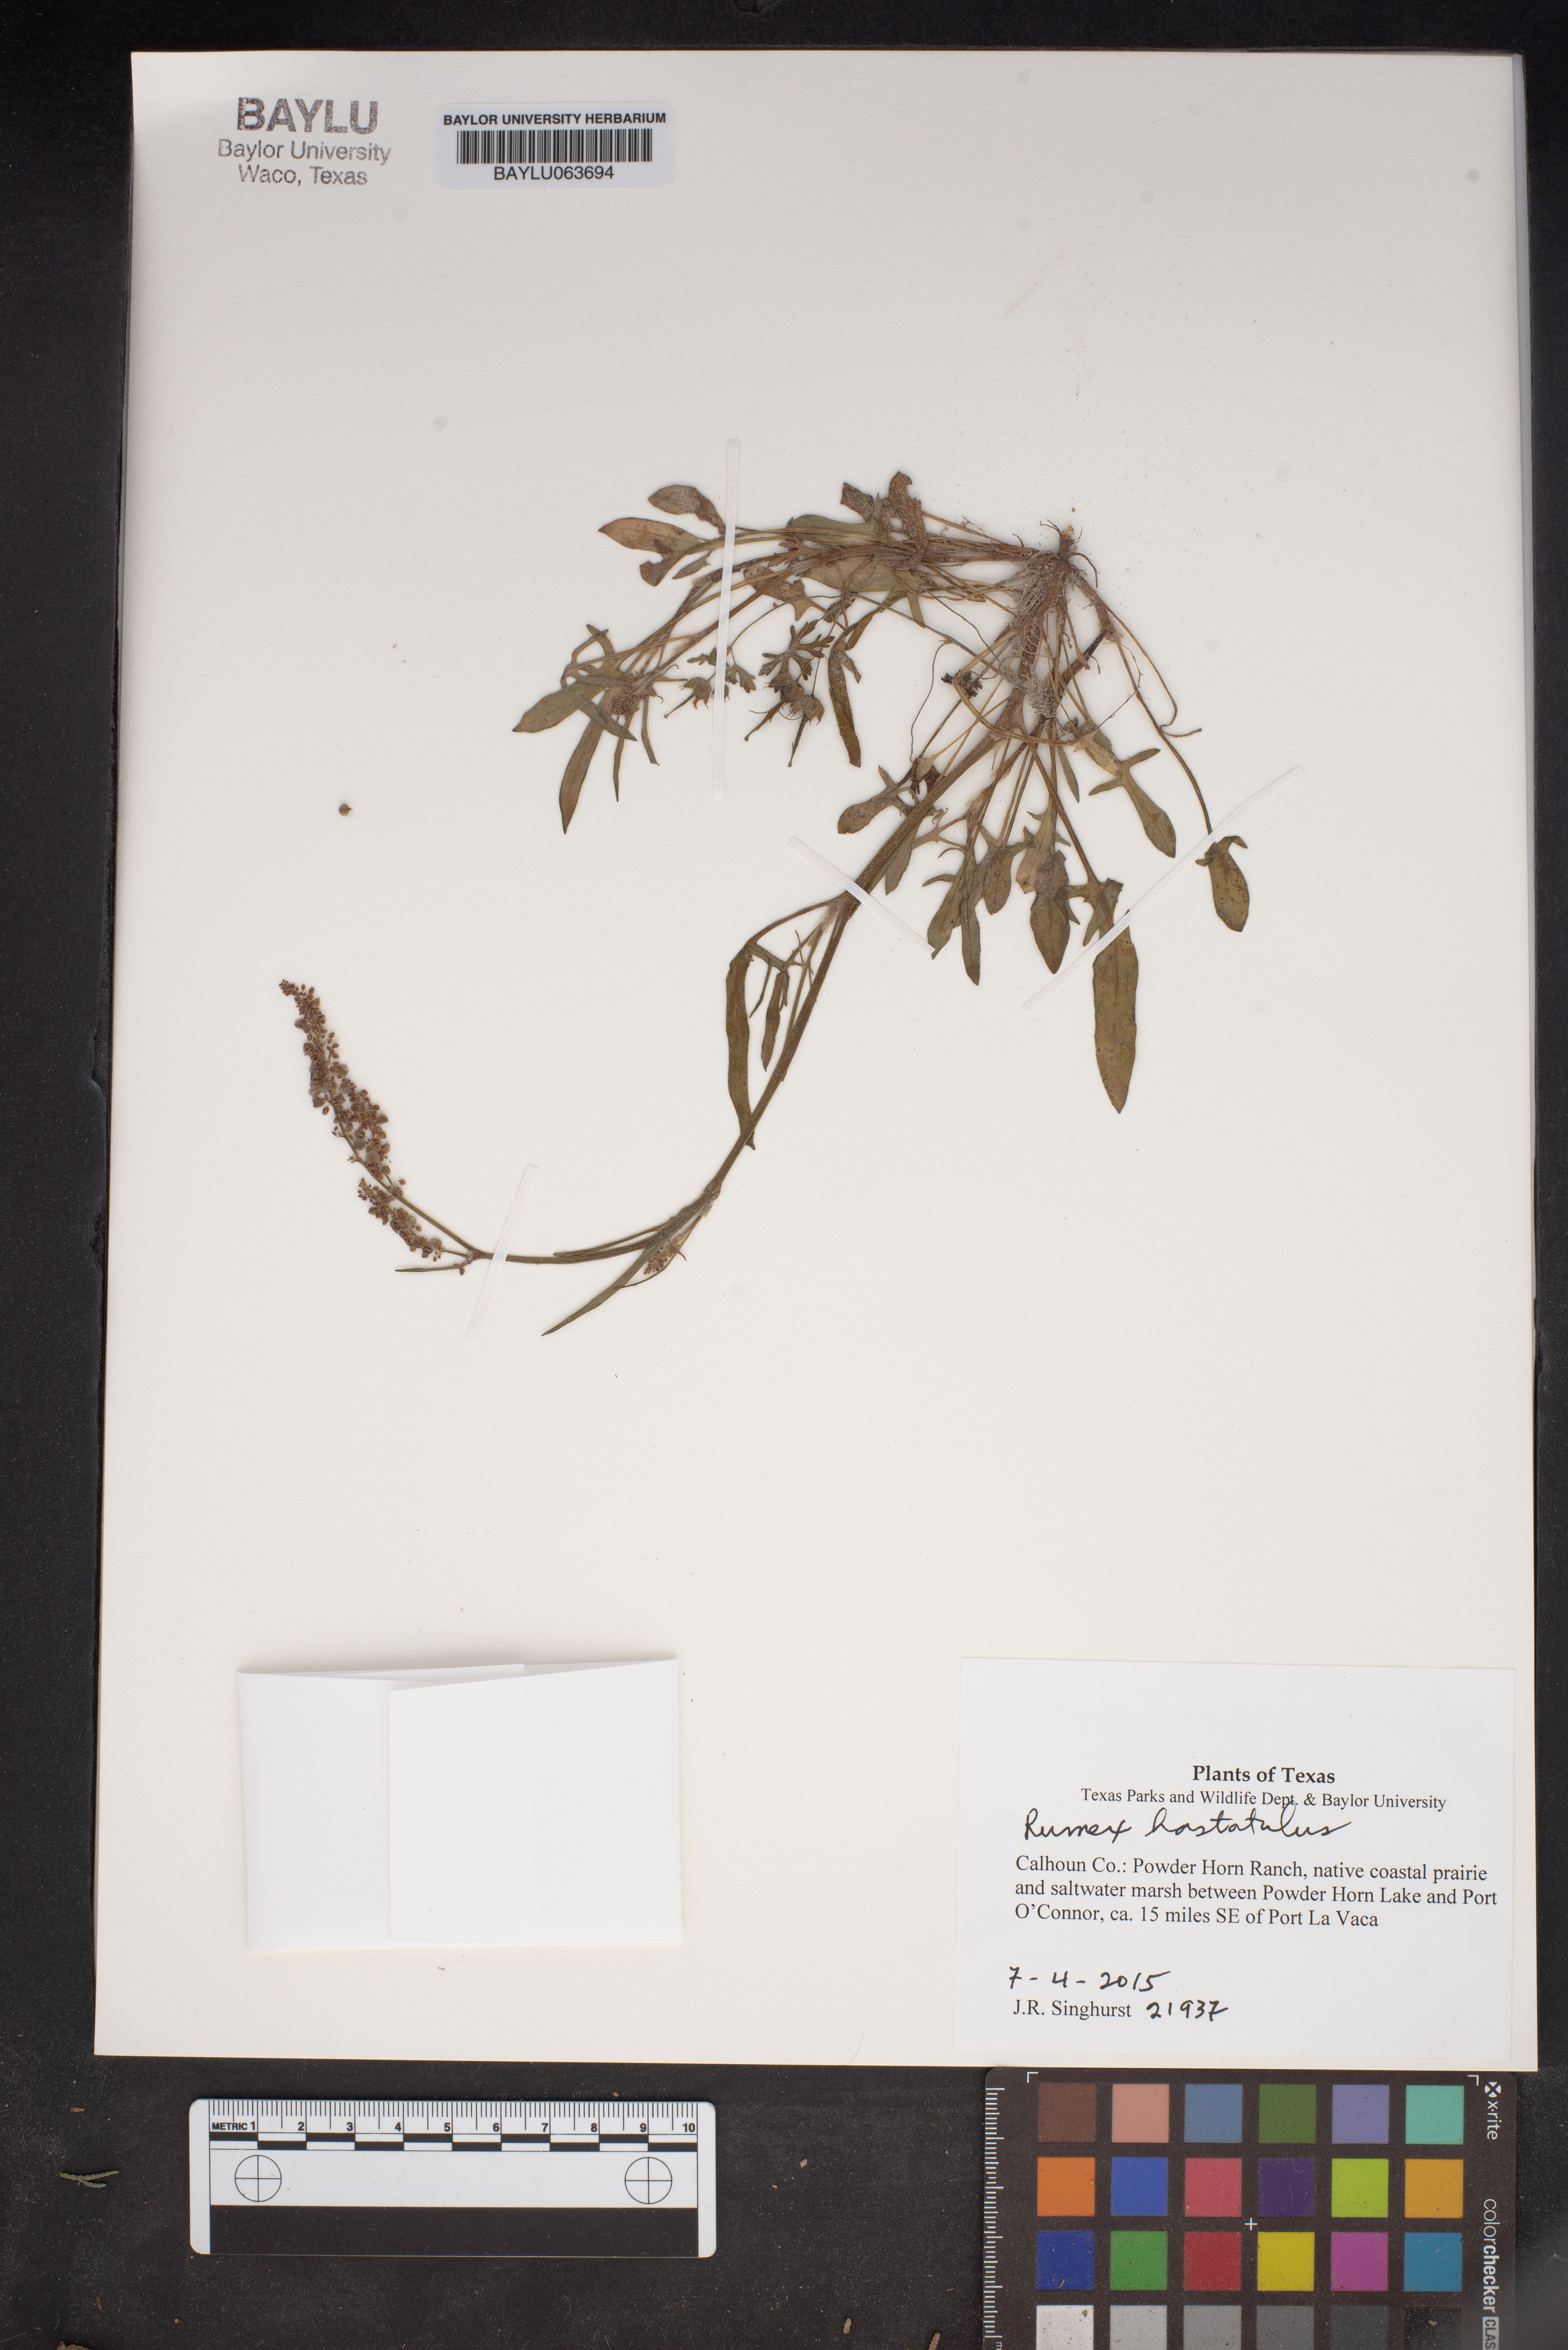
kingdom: Plantae
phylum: Tracheophyta
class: Magnoliopsida
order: Caryophyllales
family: Polygonaceae
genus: Rumex
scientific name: Rumex hastatulus
